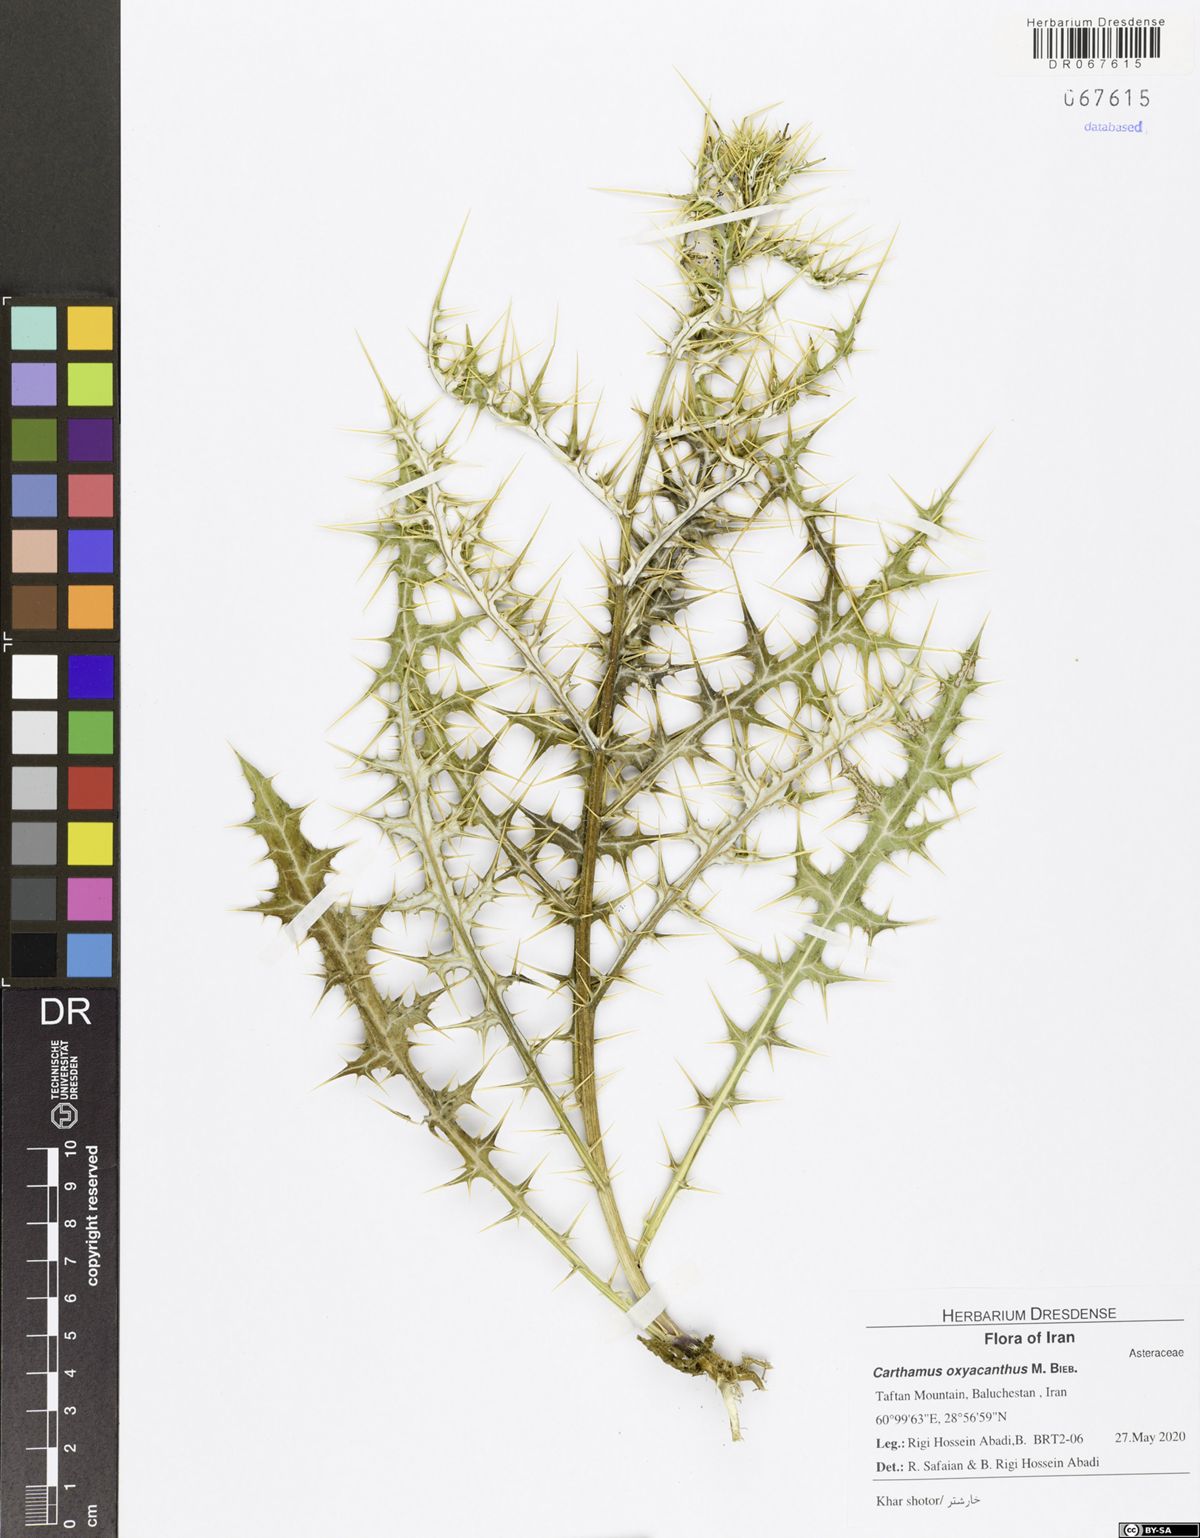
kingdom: Plantae
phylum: Tracheophyta
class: Magnoliopsida
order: Asterales
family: Asteraceae
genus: Carthamus
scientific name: Carthamus oxyacanthus
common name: Wild safflower
